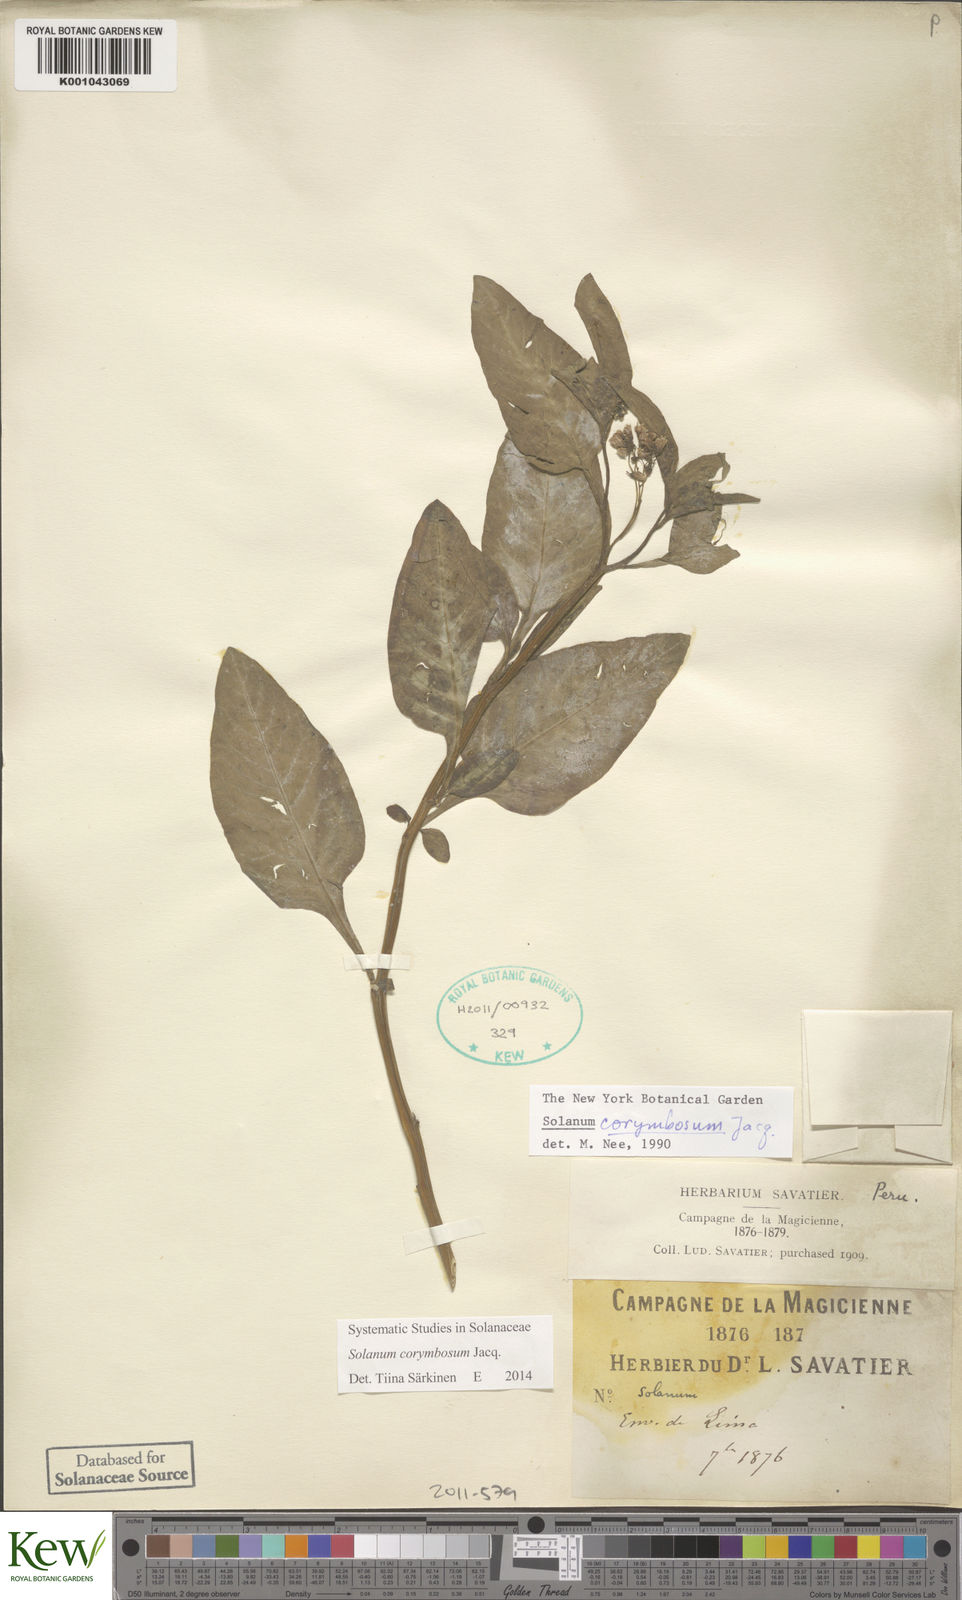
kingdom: Plantae
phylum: Tracheophyta
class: Magnoliopsida
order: Solanales
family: Solanaceae
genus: Solanum
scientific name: Solanum corymbosum
